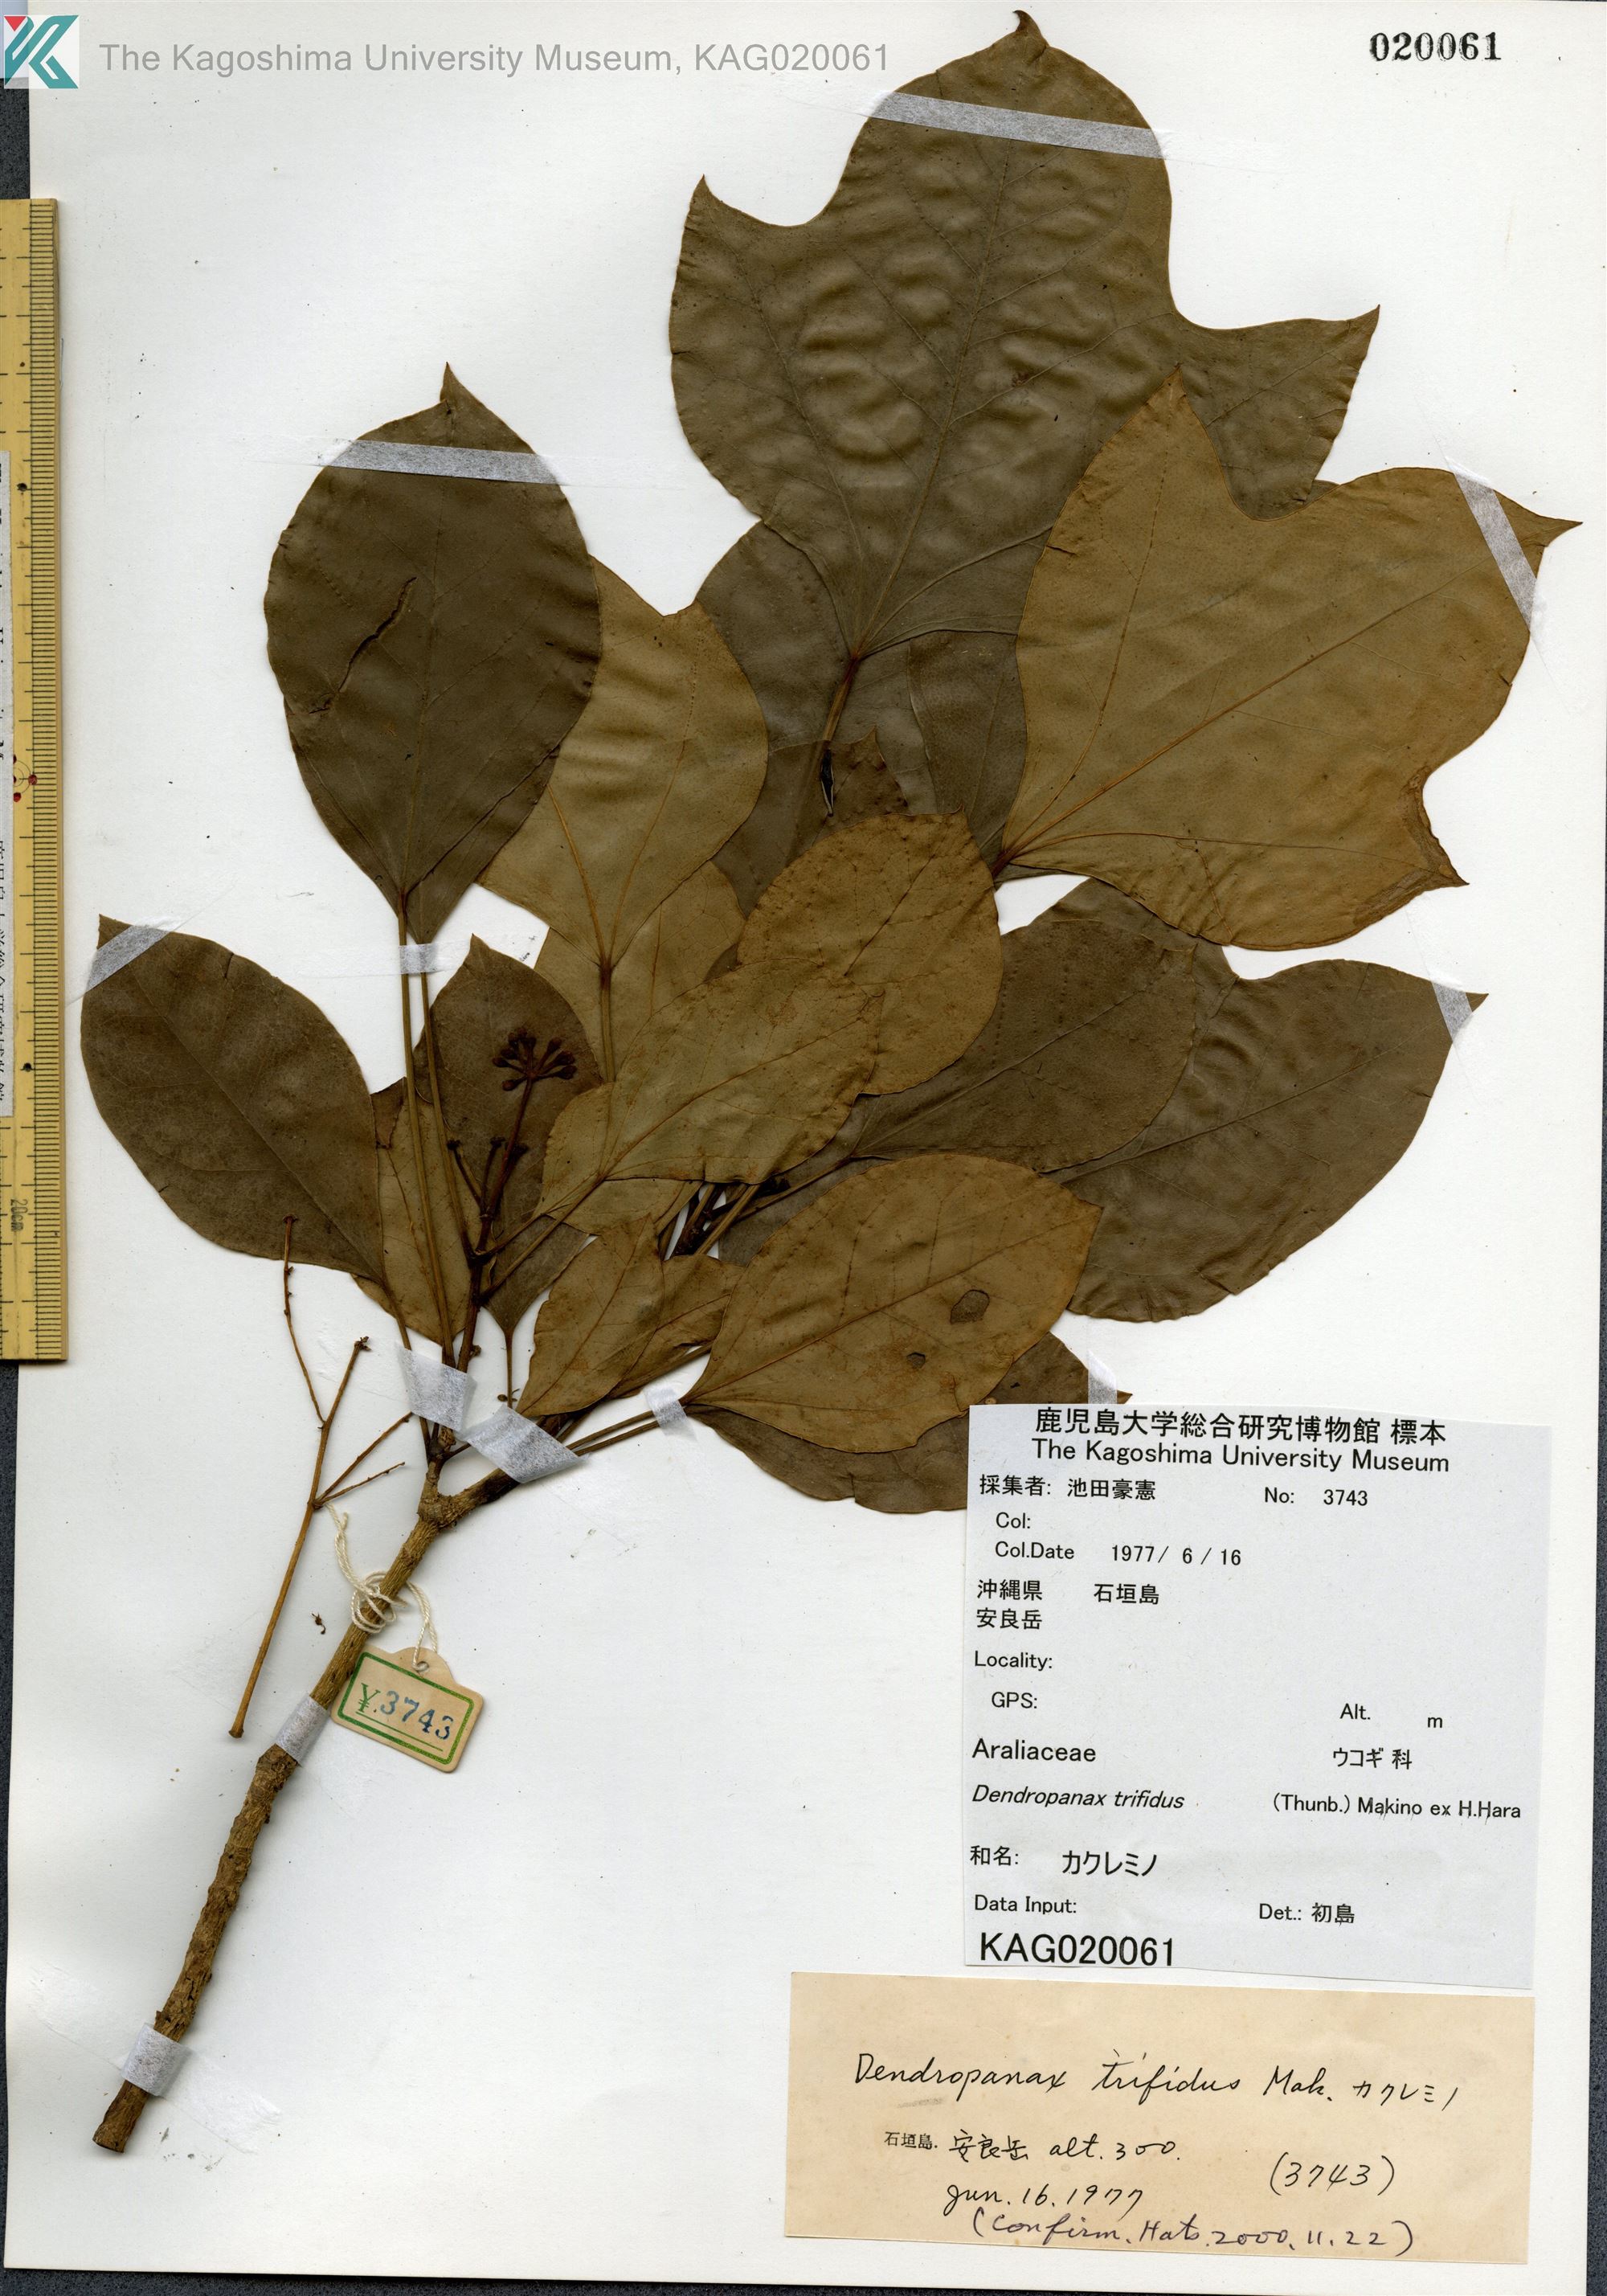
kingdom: Plantae
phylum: Tracheophyta
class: Magnoliopsida
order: Apiales
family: Araliaceae
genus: Dendropanax
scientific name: Dendropanax trifidus
